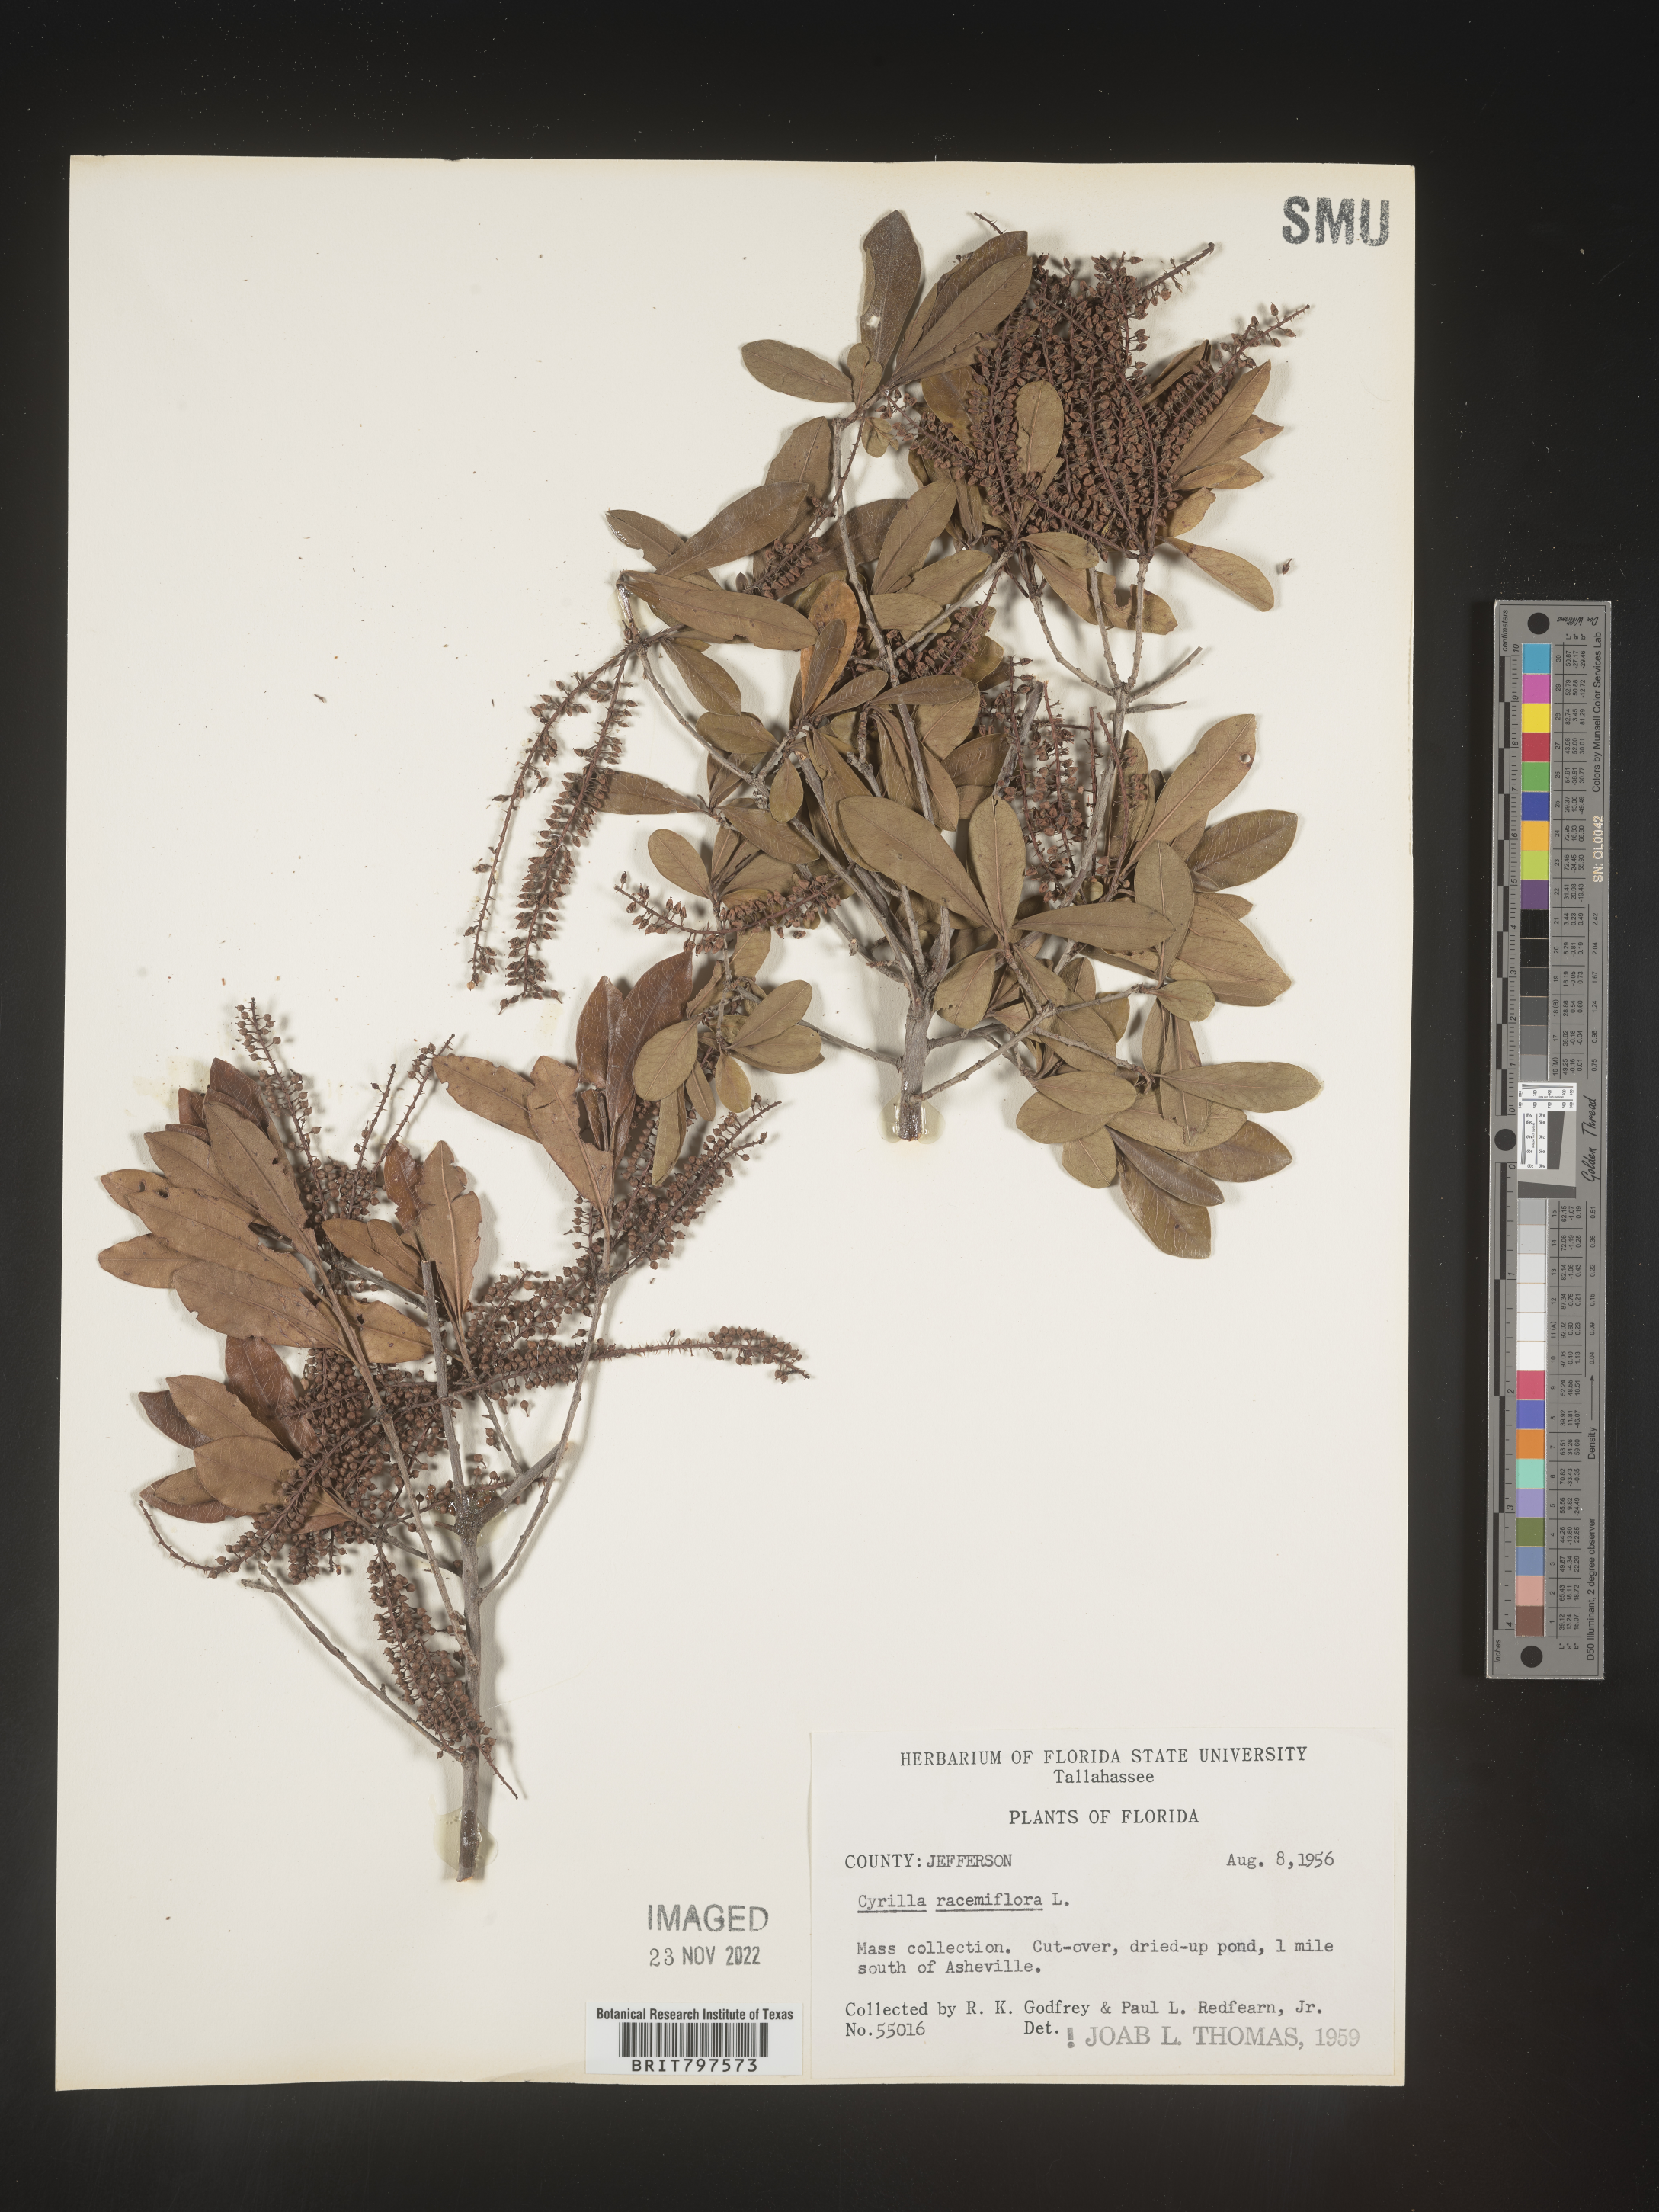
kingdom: Plantae
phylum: Tracheophyta
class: Magnoliopsida
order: Ericales
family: Cyrillaceae
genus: Cyrilla
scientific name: Cyrilla racemiflora
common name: Black titi
